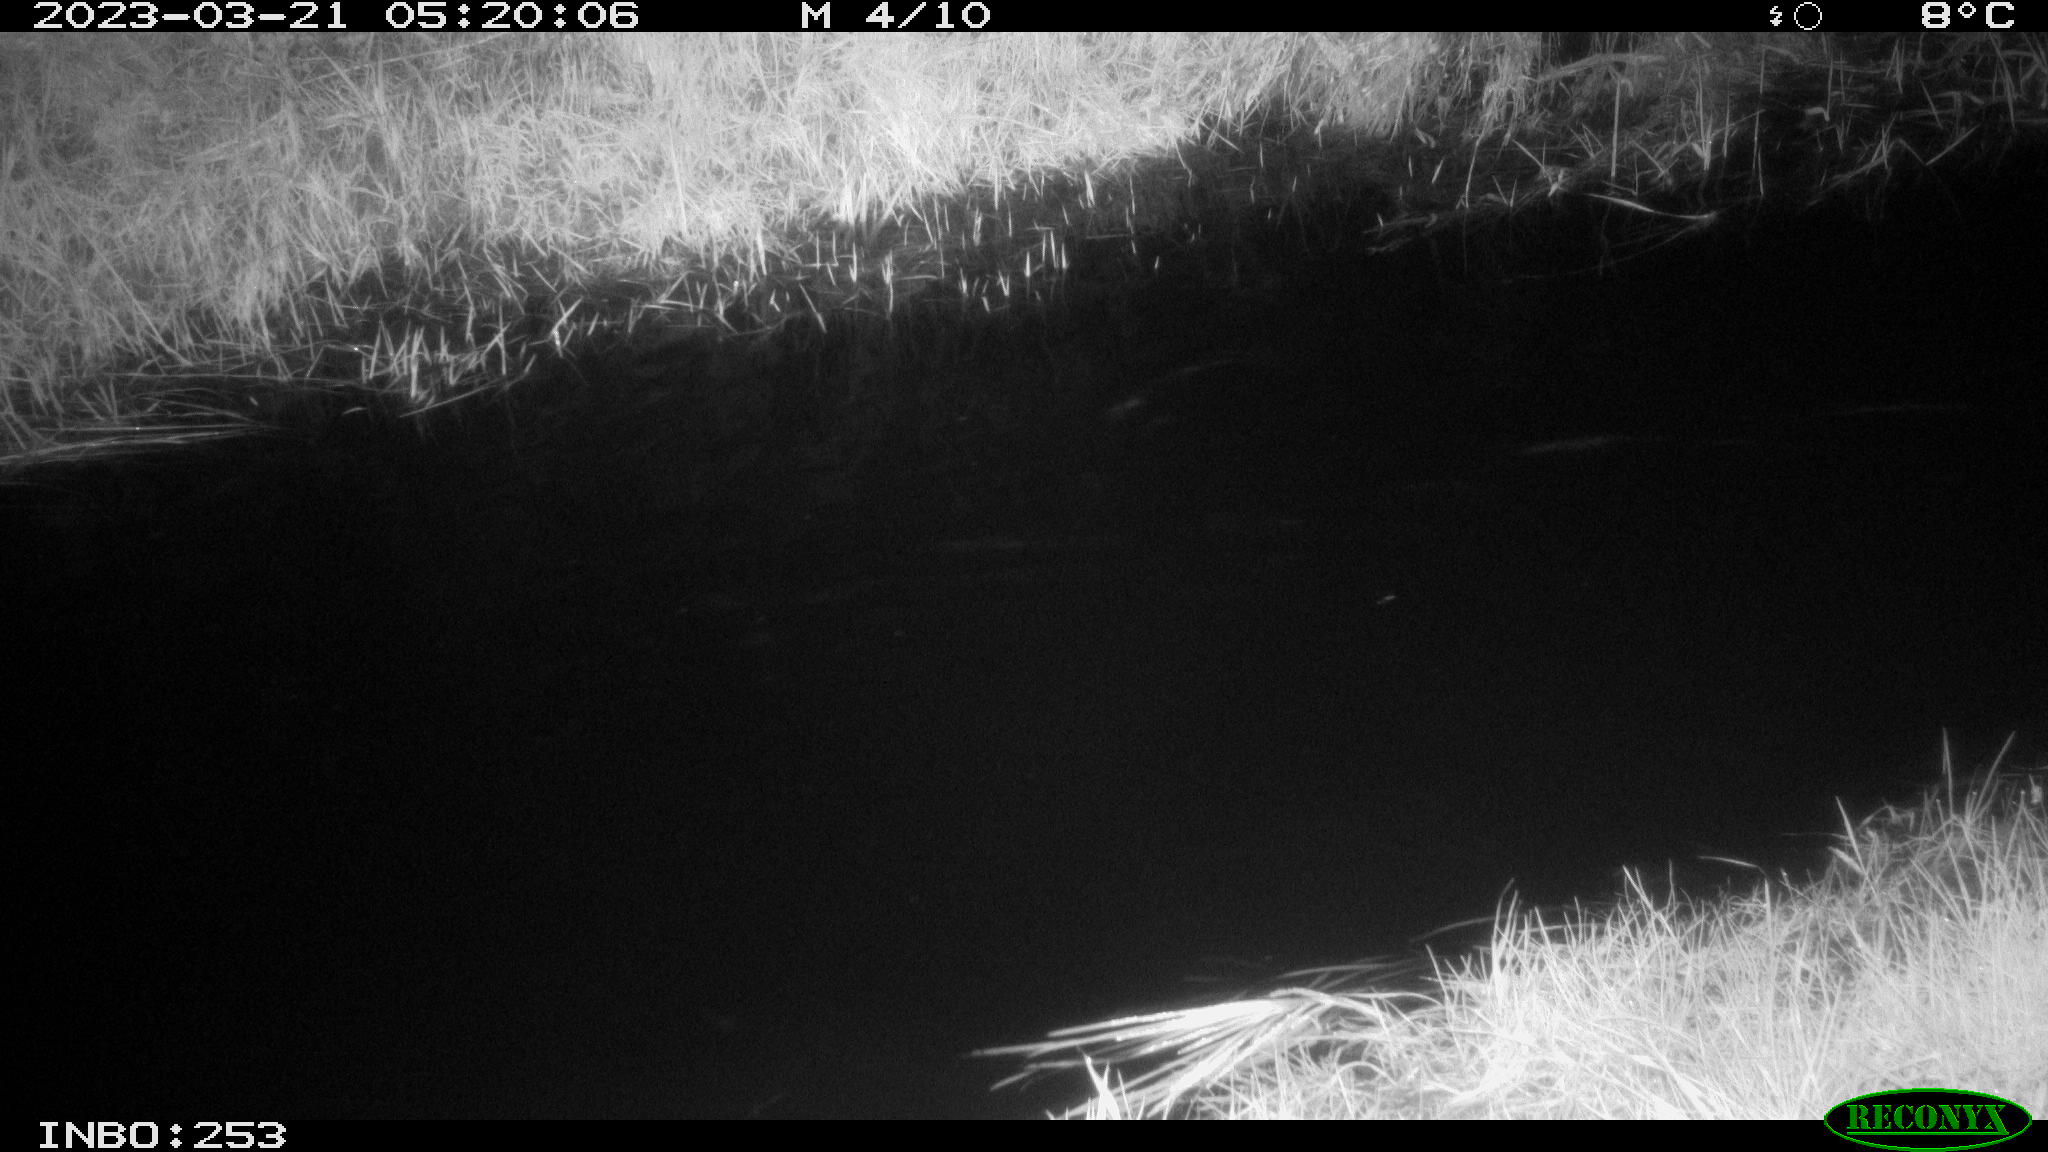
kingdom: Animalia
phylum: Chordata
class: Aves
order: Anseriformes
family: Anatidae
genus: Anas
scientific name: Anas platyrhynchos
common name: Mallard
